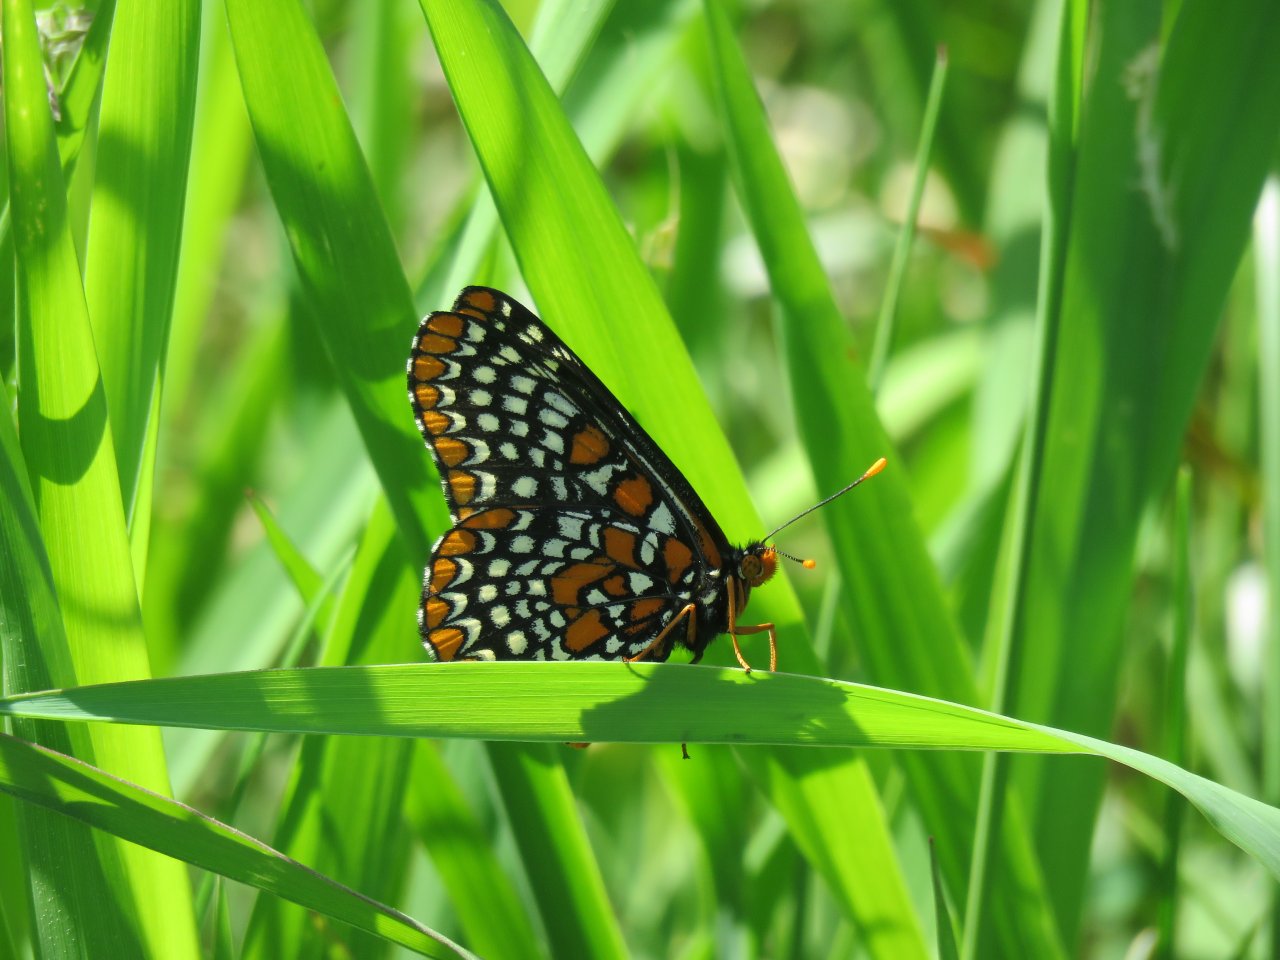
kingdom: Animalia
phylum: Arthropoda
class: Insecta
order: Lepidoptera
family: Nymphalidae
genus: Euphydryas
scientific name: Euphydryas phaeton
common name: Baltimore Checkerspot
